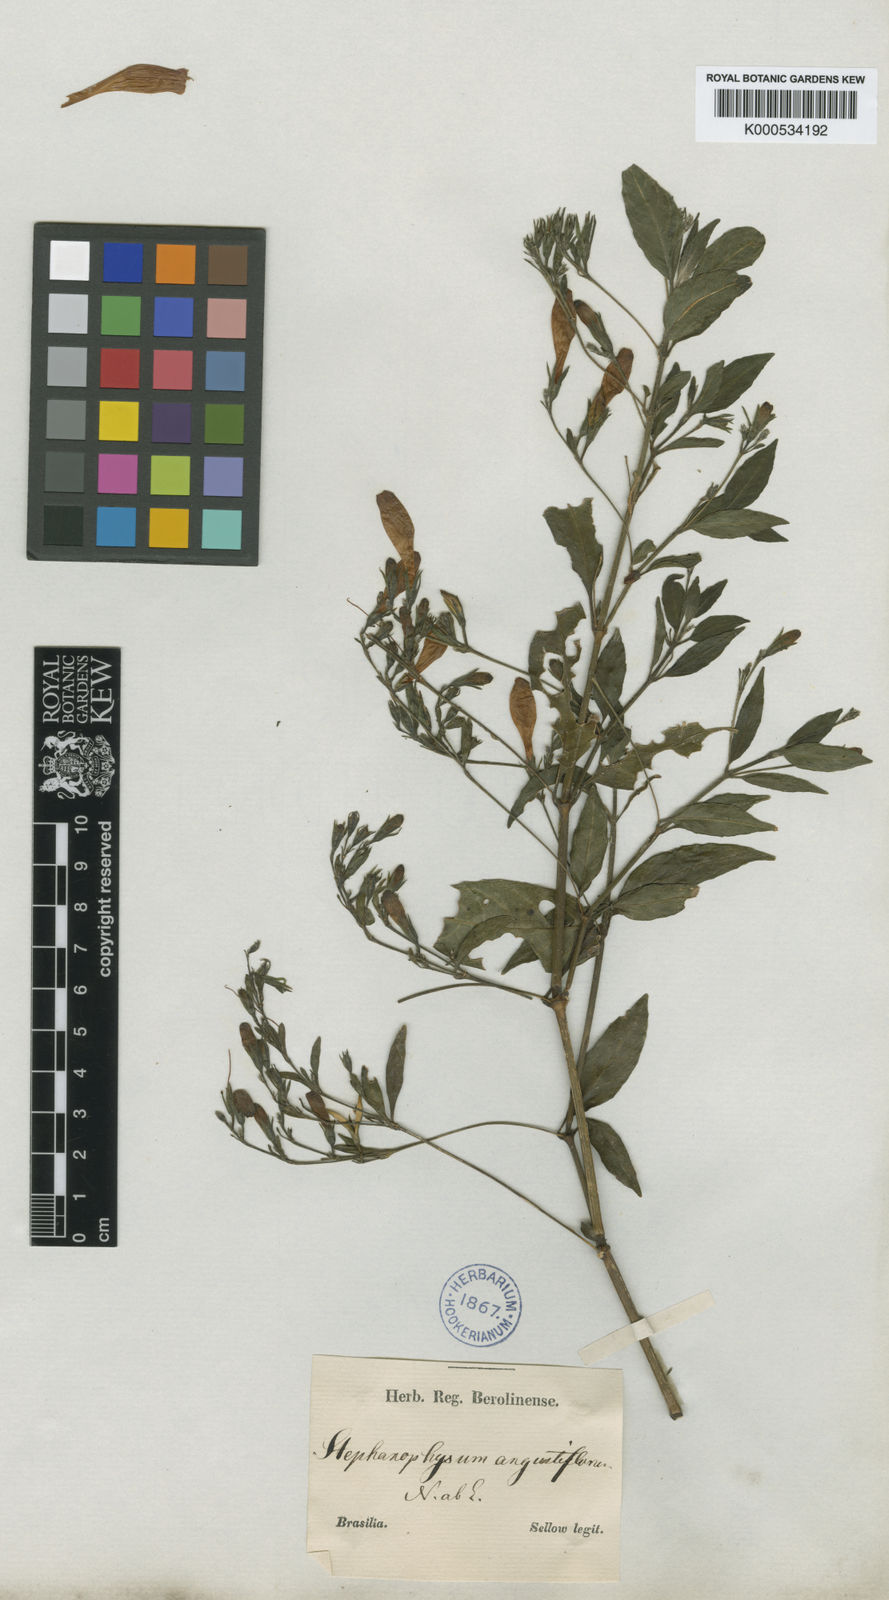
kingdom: Plantae
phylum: Tracheophyta
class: Magnoliopsida
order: Lamiales
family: Acanthaceae
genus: Ruellia
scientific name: Ruellia angustiflora
